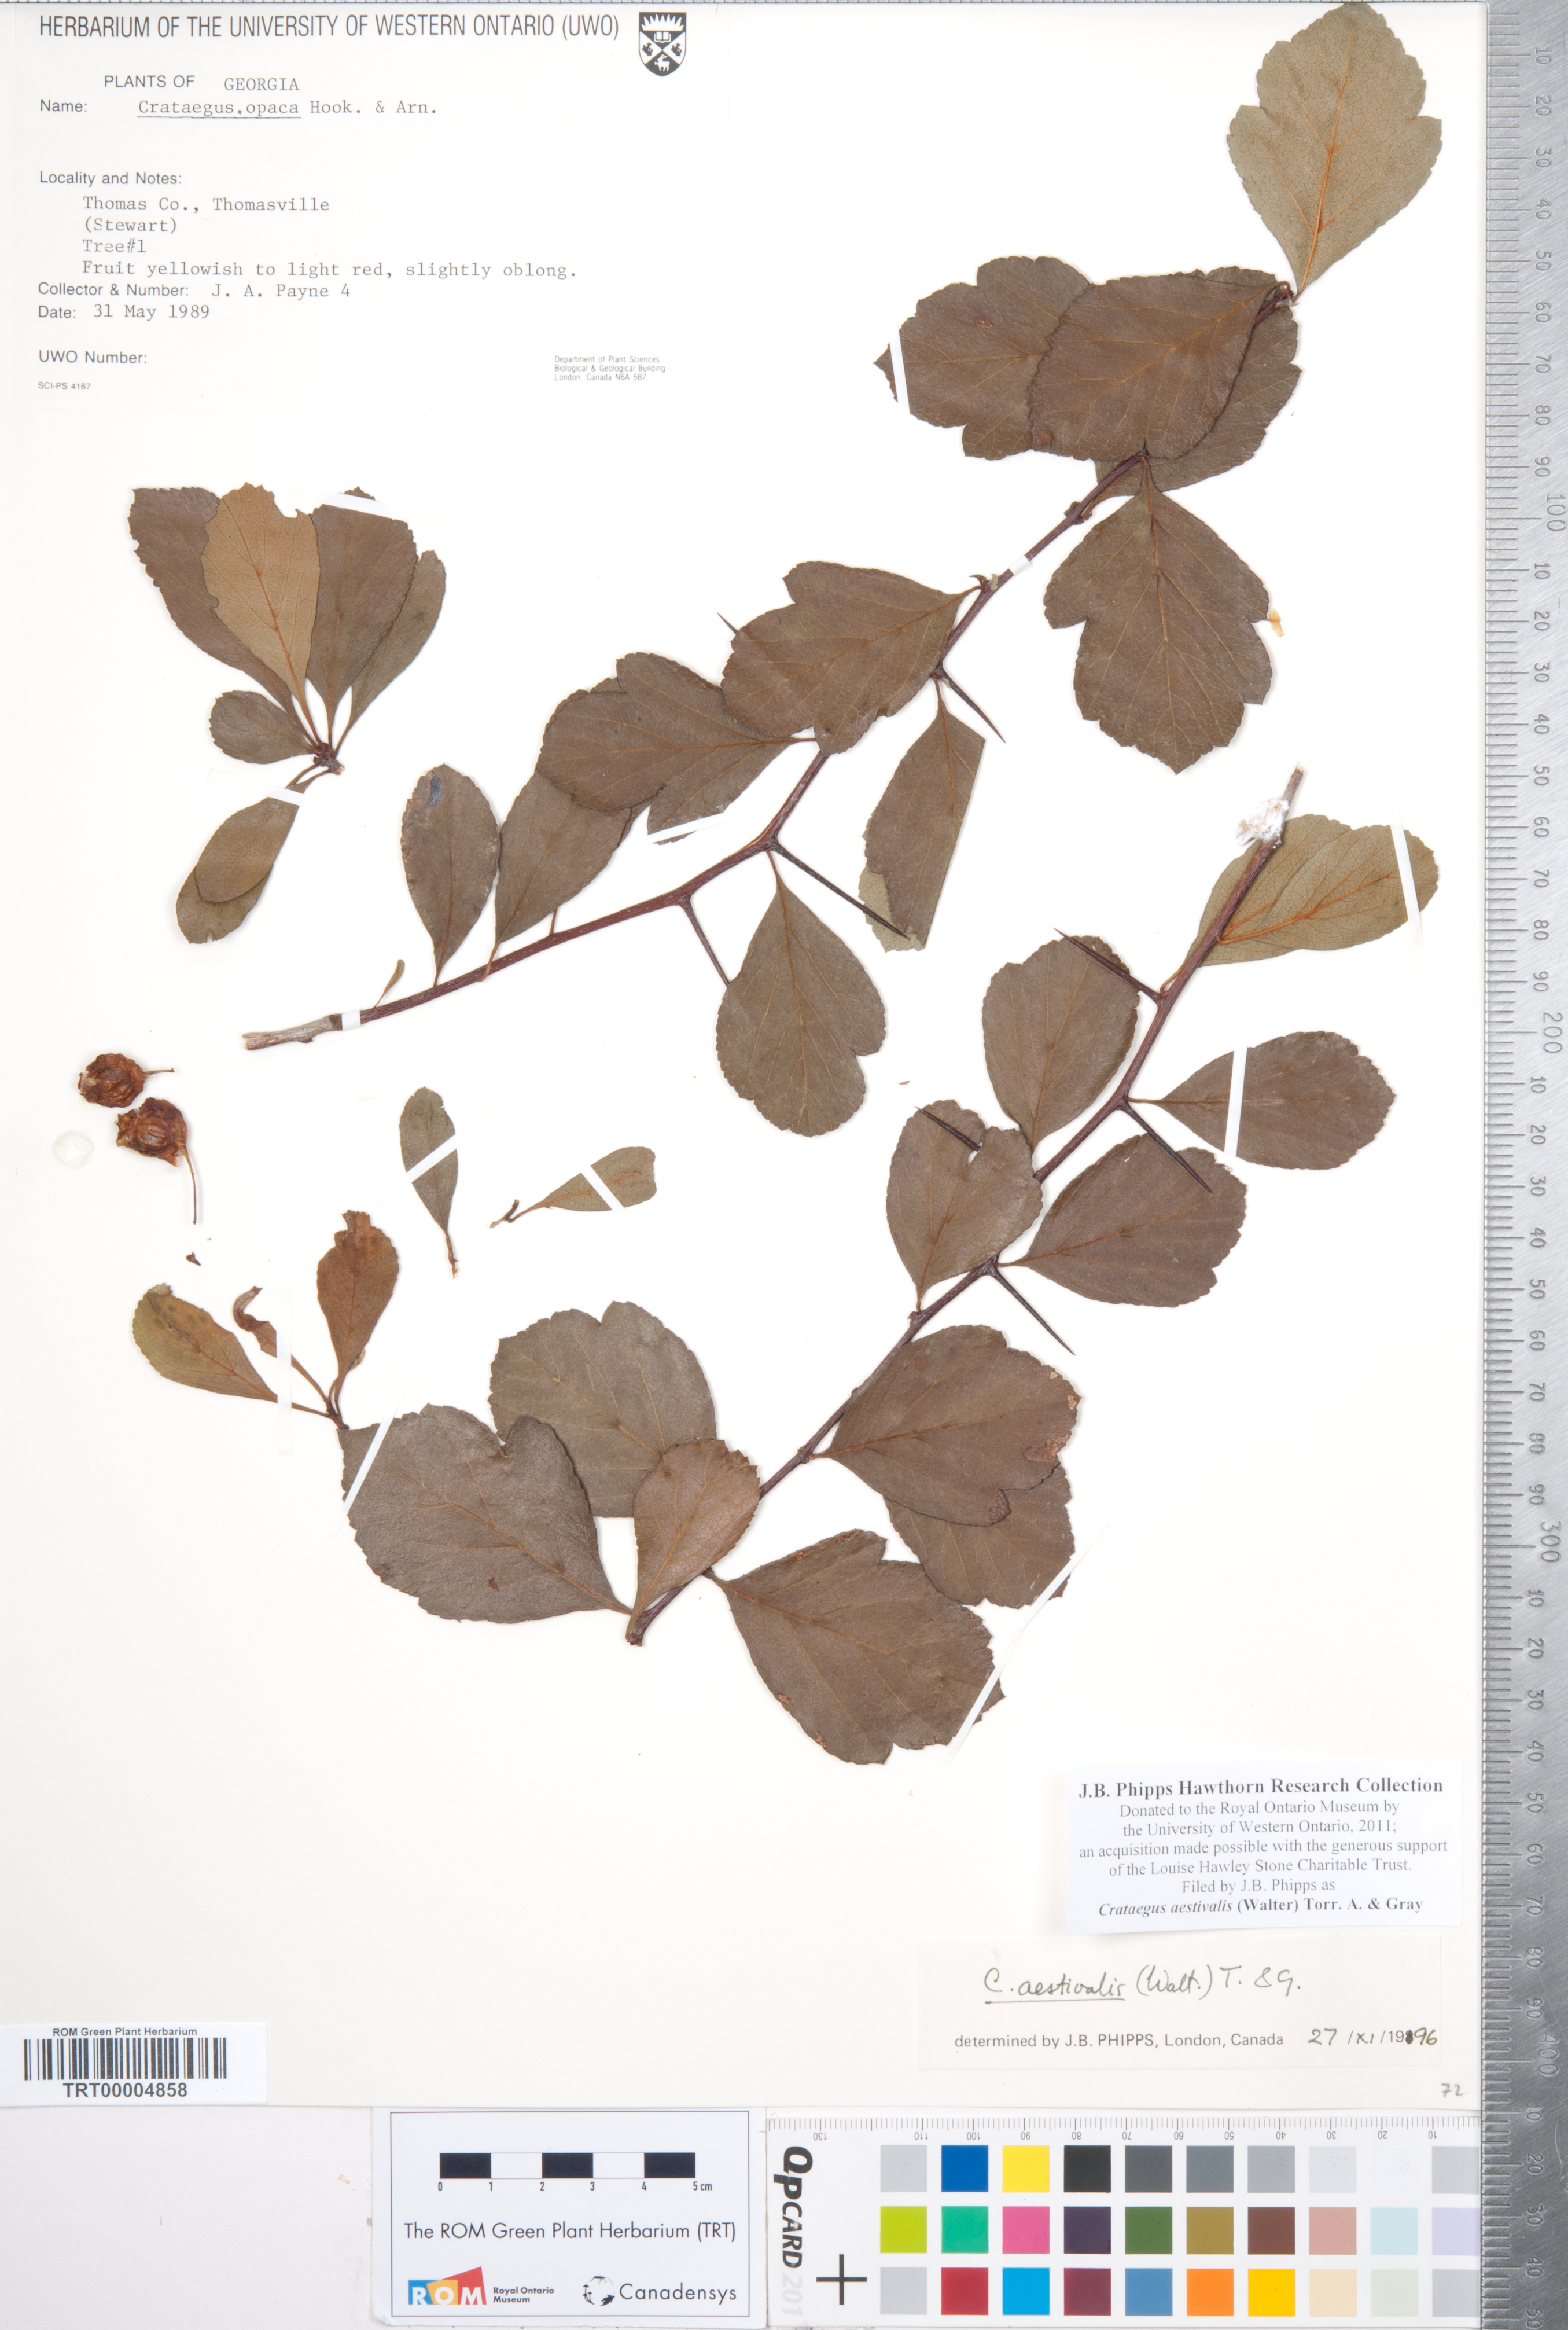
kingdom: Plantae
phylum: Tracheophyta
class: Magnoliopsida
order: Rosales
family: Rosaceae
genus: Crataegus
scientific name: Crataegus aestivalis
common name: Mayhaw
